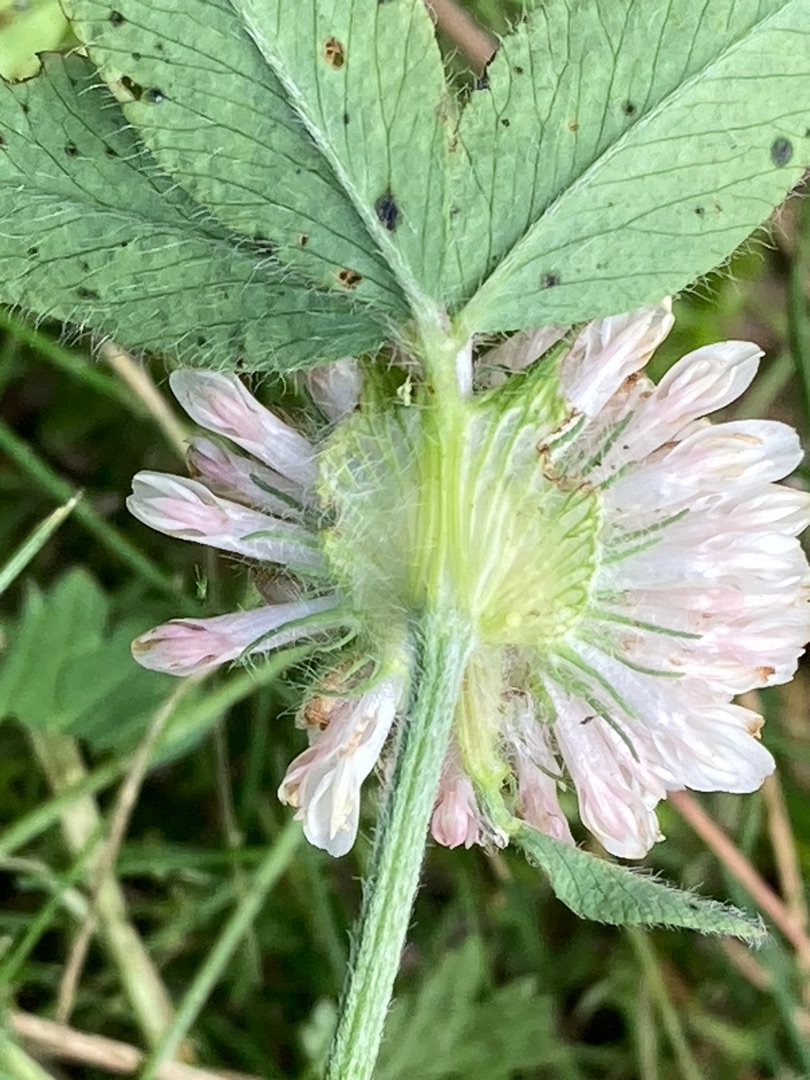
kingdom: Plantae
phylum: Tracheophyta
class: Magnoliopsida
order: Fabales
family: Fabaceae
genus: Trifolium
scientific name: Trifolium pratense
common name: Rød-kløver
